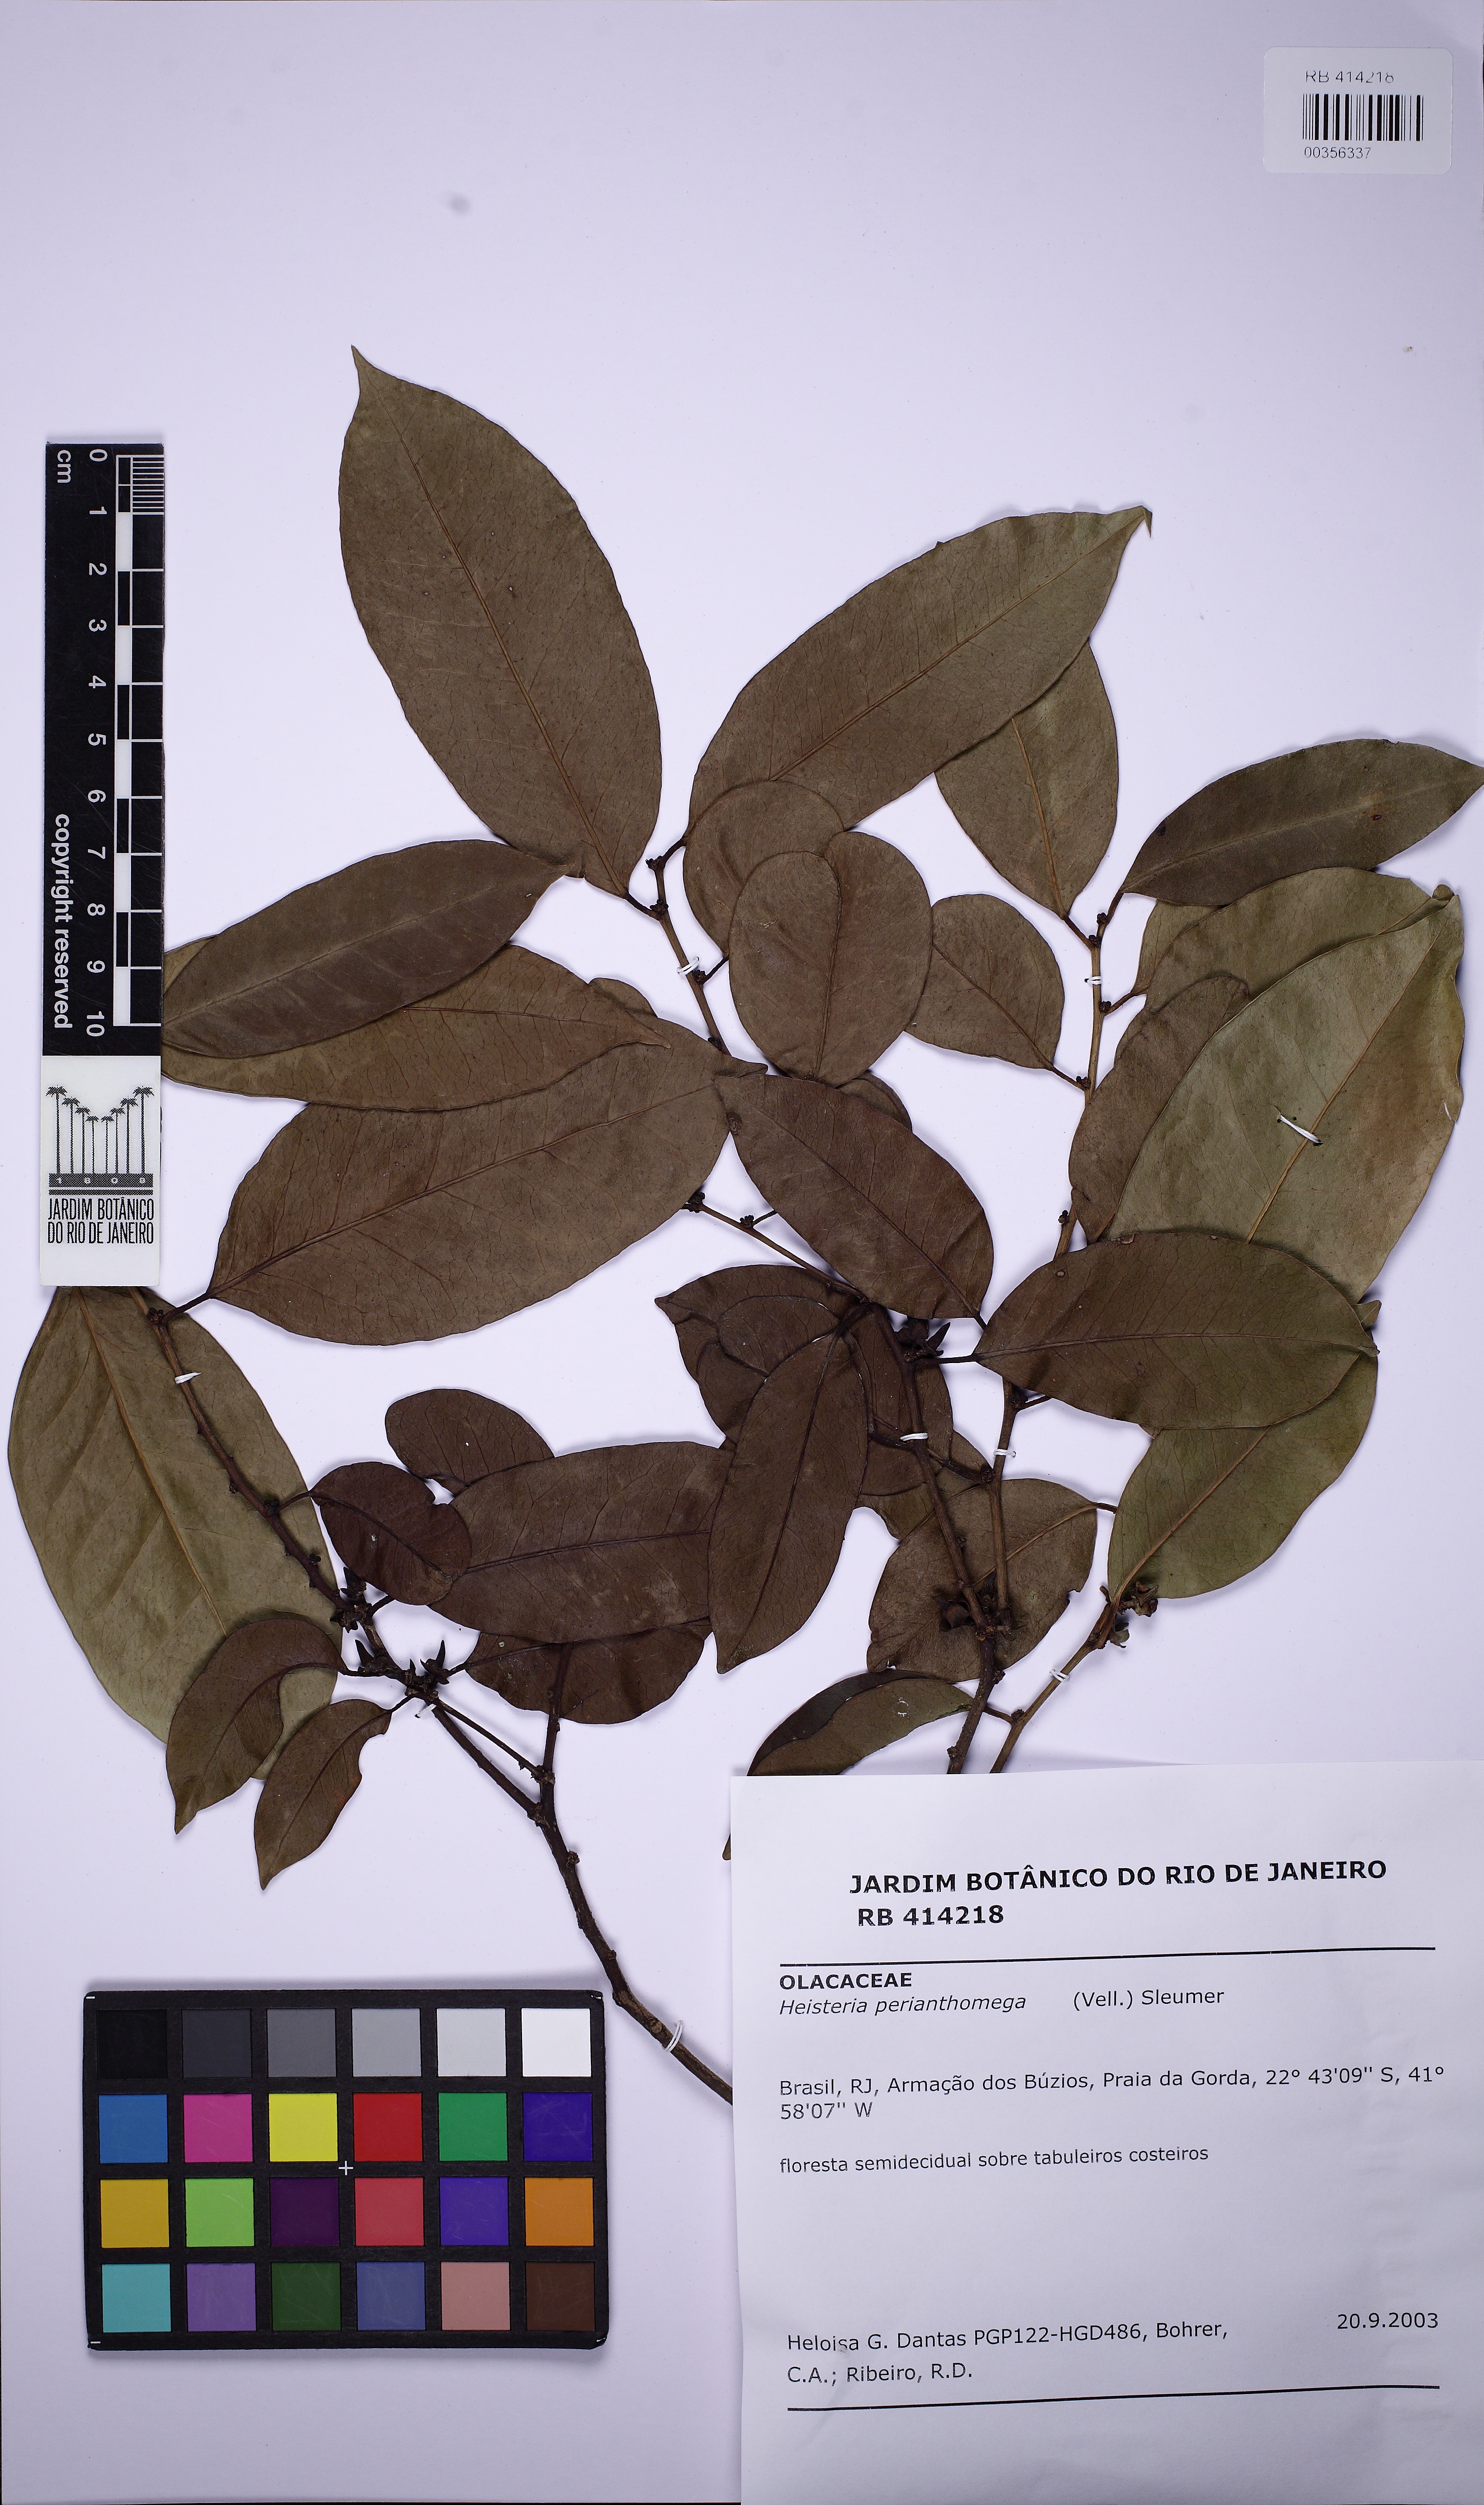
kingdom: Plantae
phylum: Tracheophyta
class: Magnoliopsida
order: Santalales
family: Erythropalaceae
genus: Heisteria
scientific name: Heisteria perianthomega
